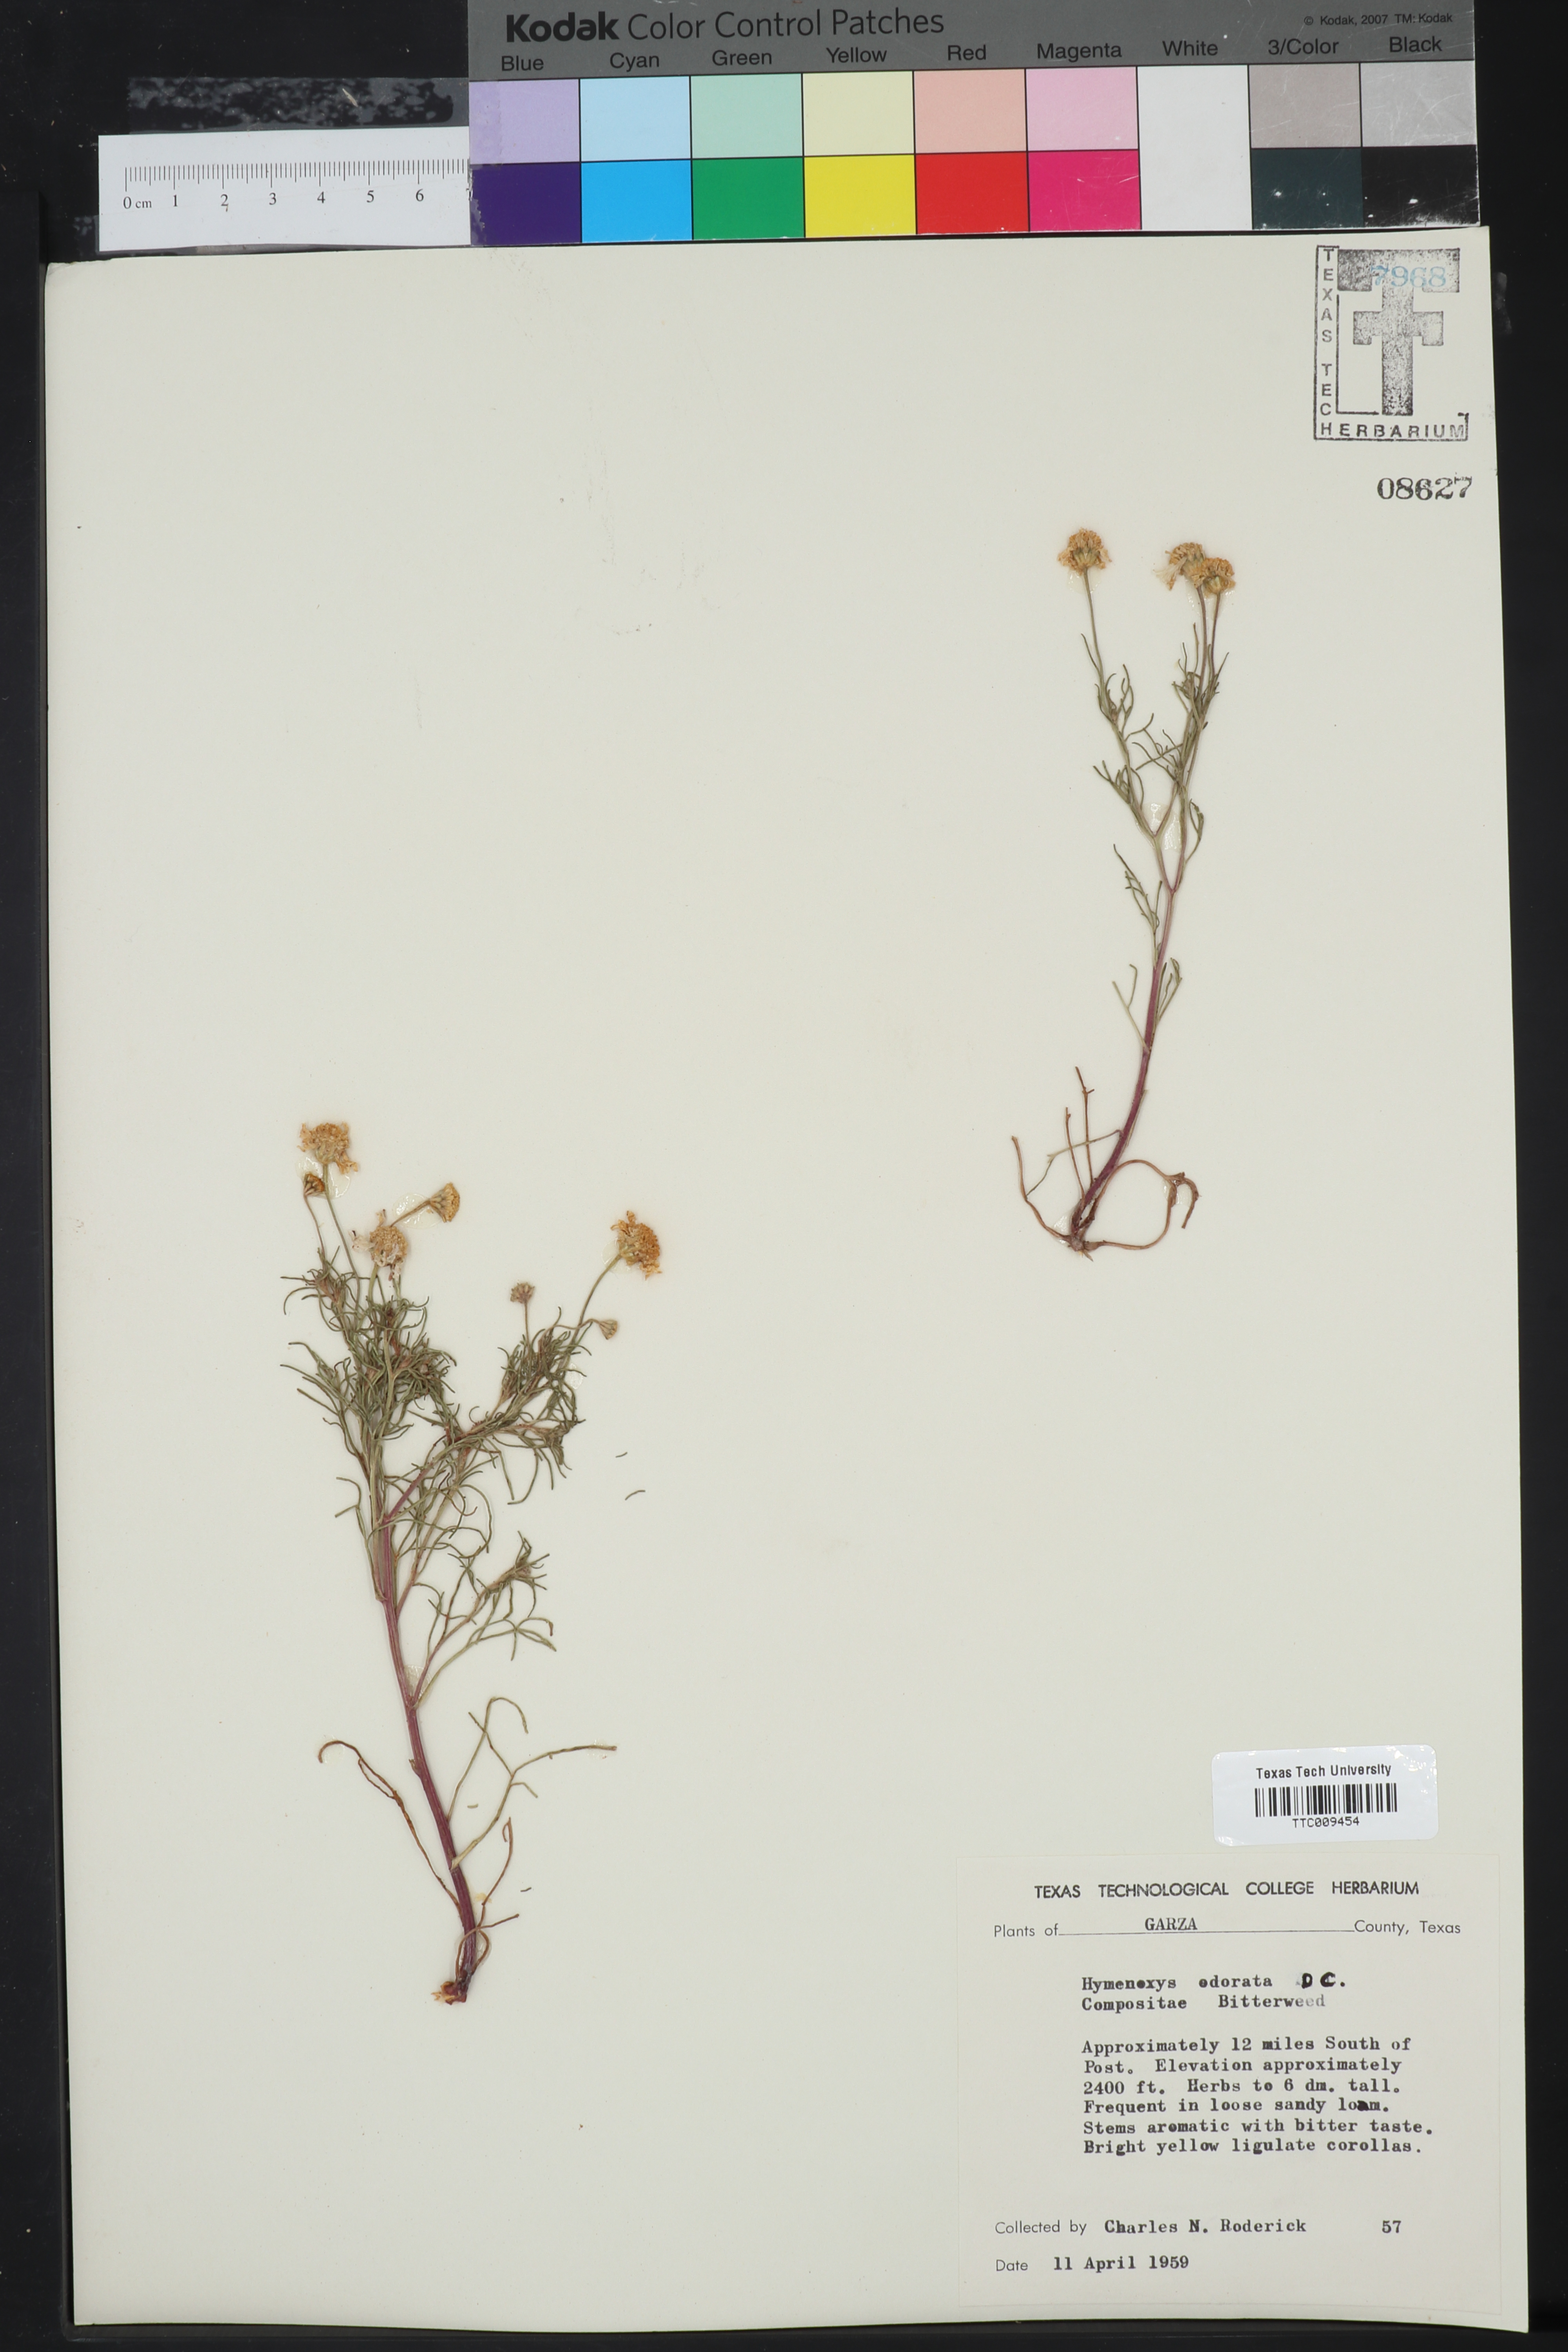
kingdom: Plantae
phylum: Tracheophyta
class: Magnoliopsida
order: Asterales
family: Asteraceae
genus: Hymenoxys
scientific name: Hymenoxys odorata
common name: Bitter rubberweed
